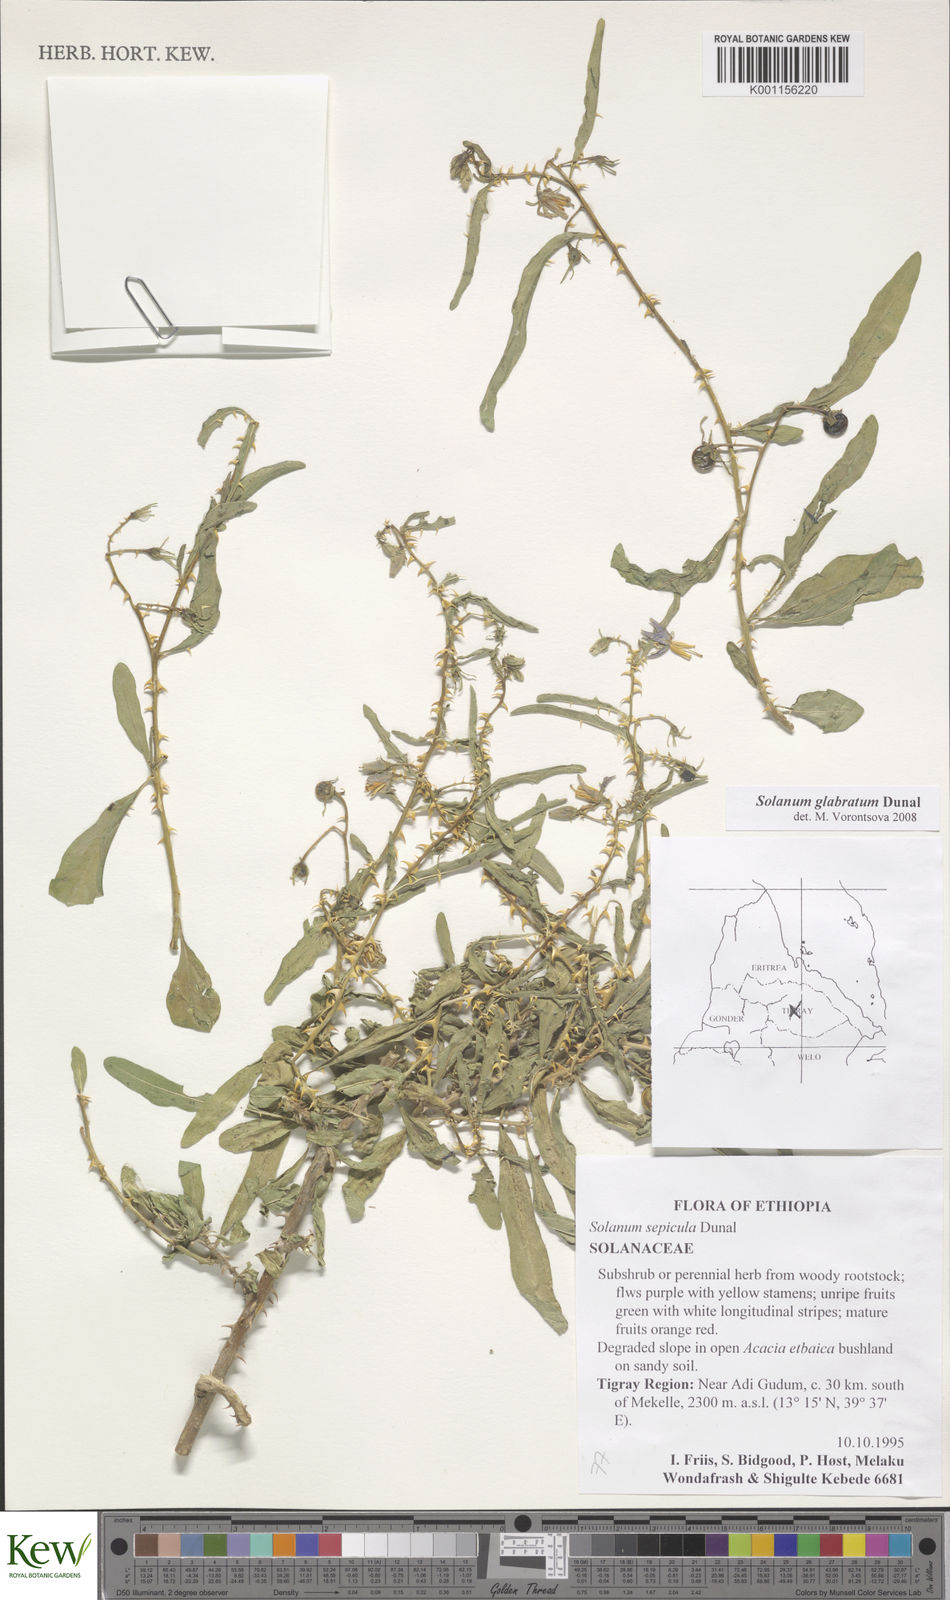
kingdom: Plantae
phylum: Tracheophyta
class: Magnoliopsida
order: Solanales
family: Solanaceae
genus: Solanum
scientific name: Solanum glabratum
